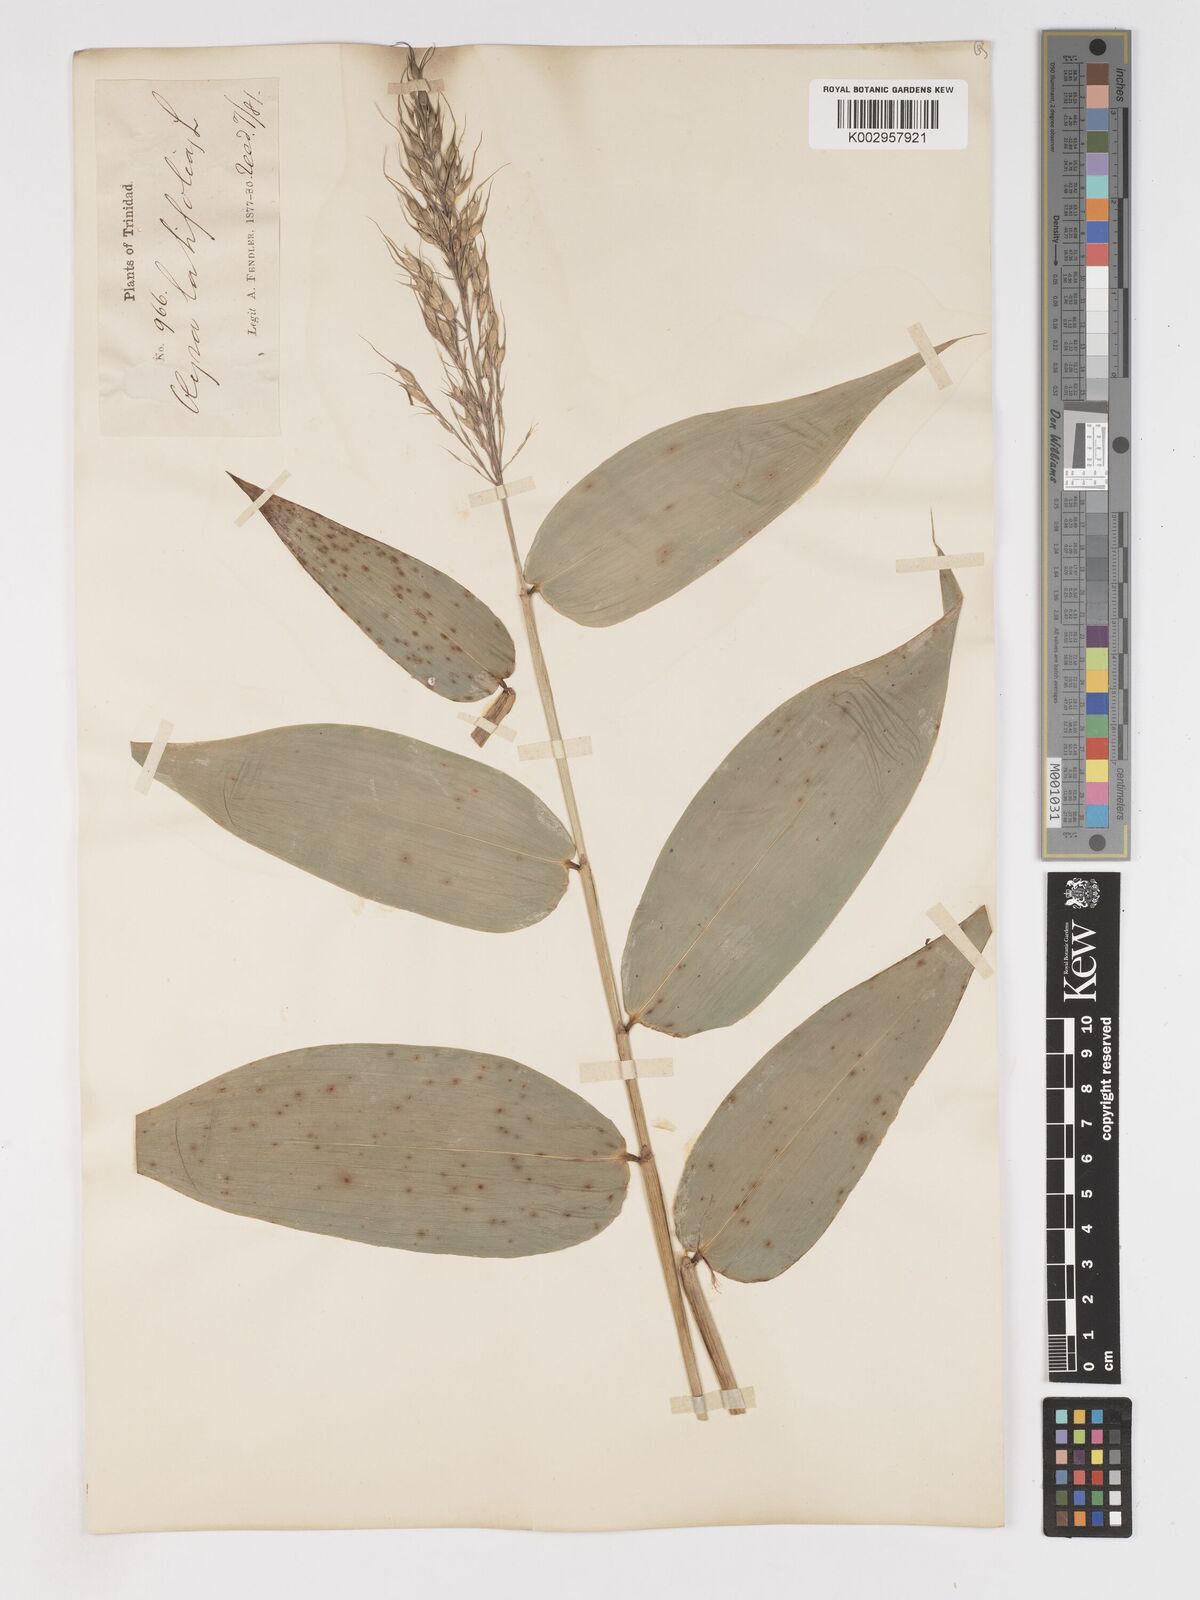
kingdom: Plantae
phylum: Tracheophyta
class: Liliopsida
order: Poales
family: Poaceae
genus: Olyra
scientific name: Olyra latifolia
